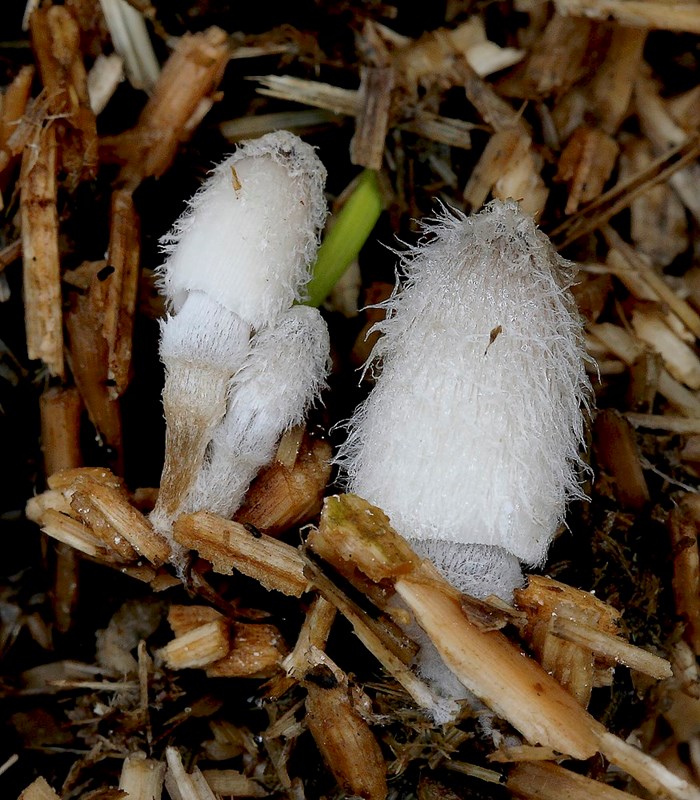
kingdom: Fungi
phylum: Basidiomycota
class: Agaricomycetes
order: Agaricales
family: Psathyrellaceae
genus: Coprinopsis
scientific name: Coprinopsis radiata
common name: lille gødnings-blækhat
